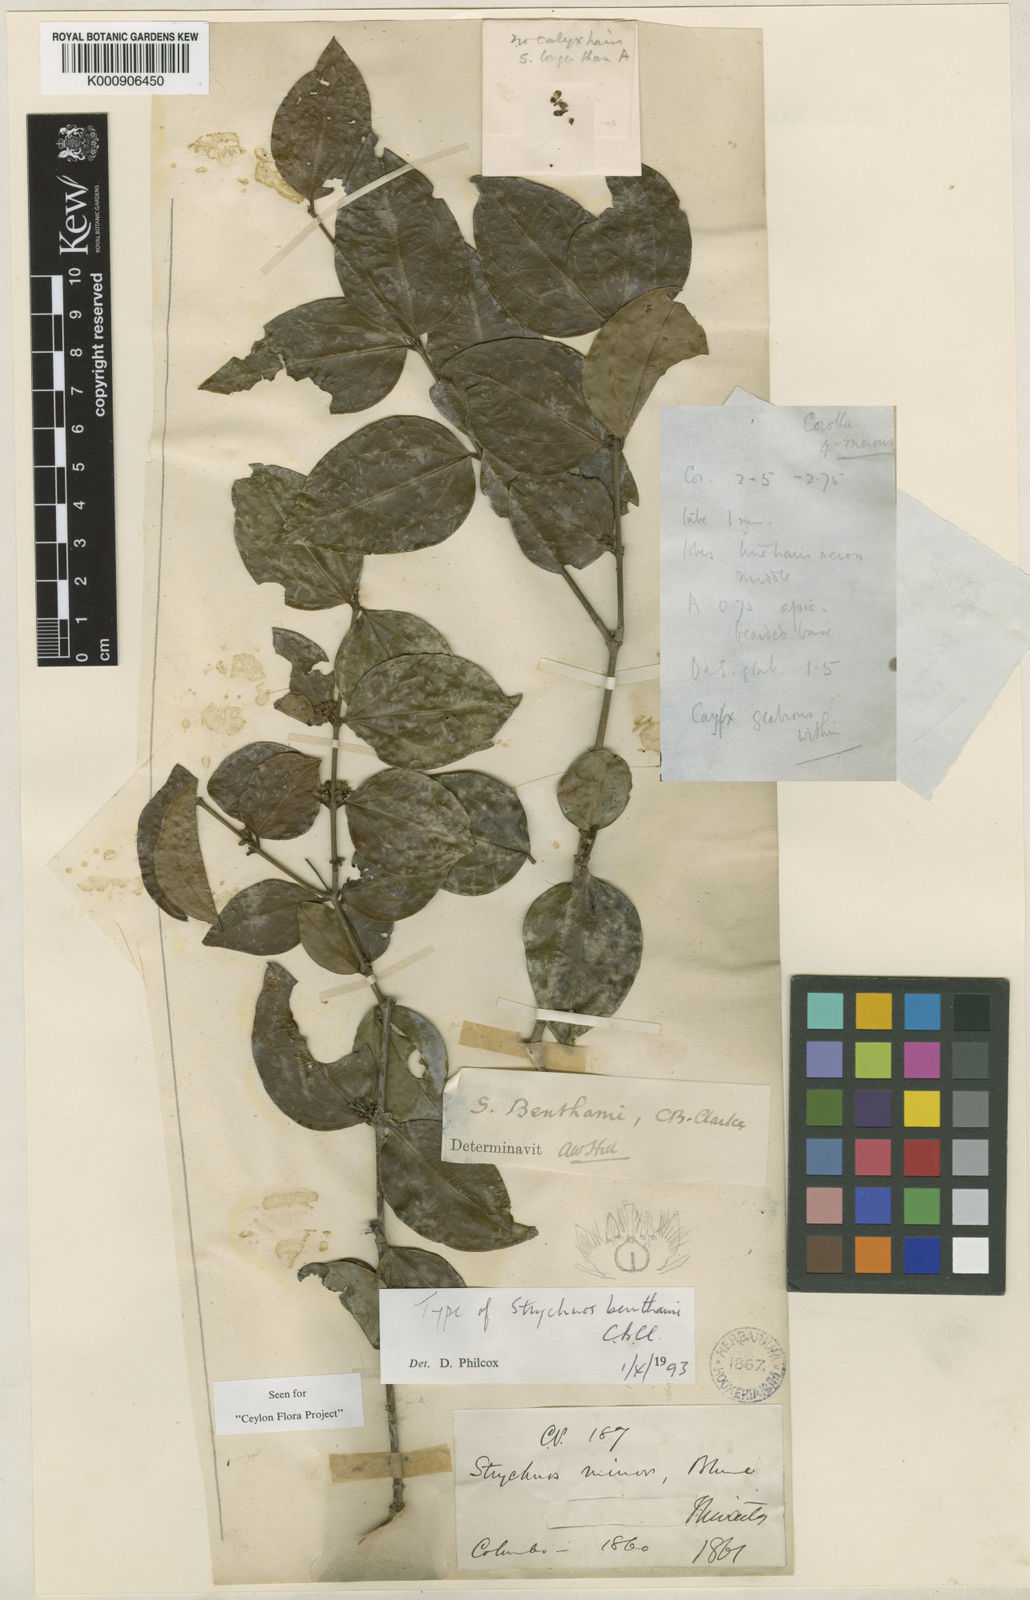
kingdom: Plantae
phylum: Tracheophyta
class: Magnoliopsida
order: Gentianales
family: Loganiaceae
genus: Strychnos
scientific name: Strychnos benthamii
